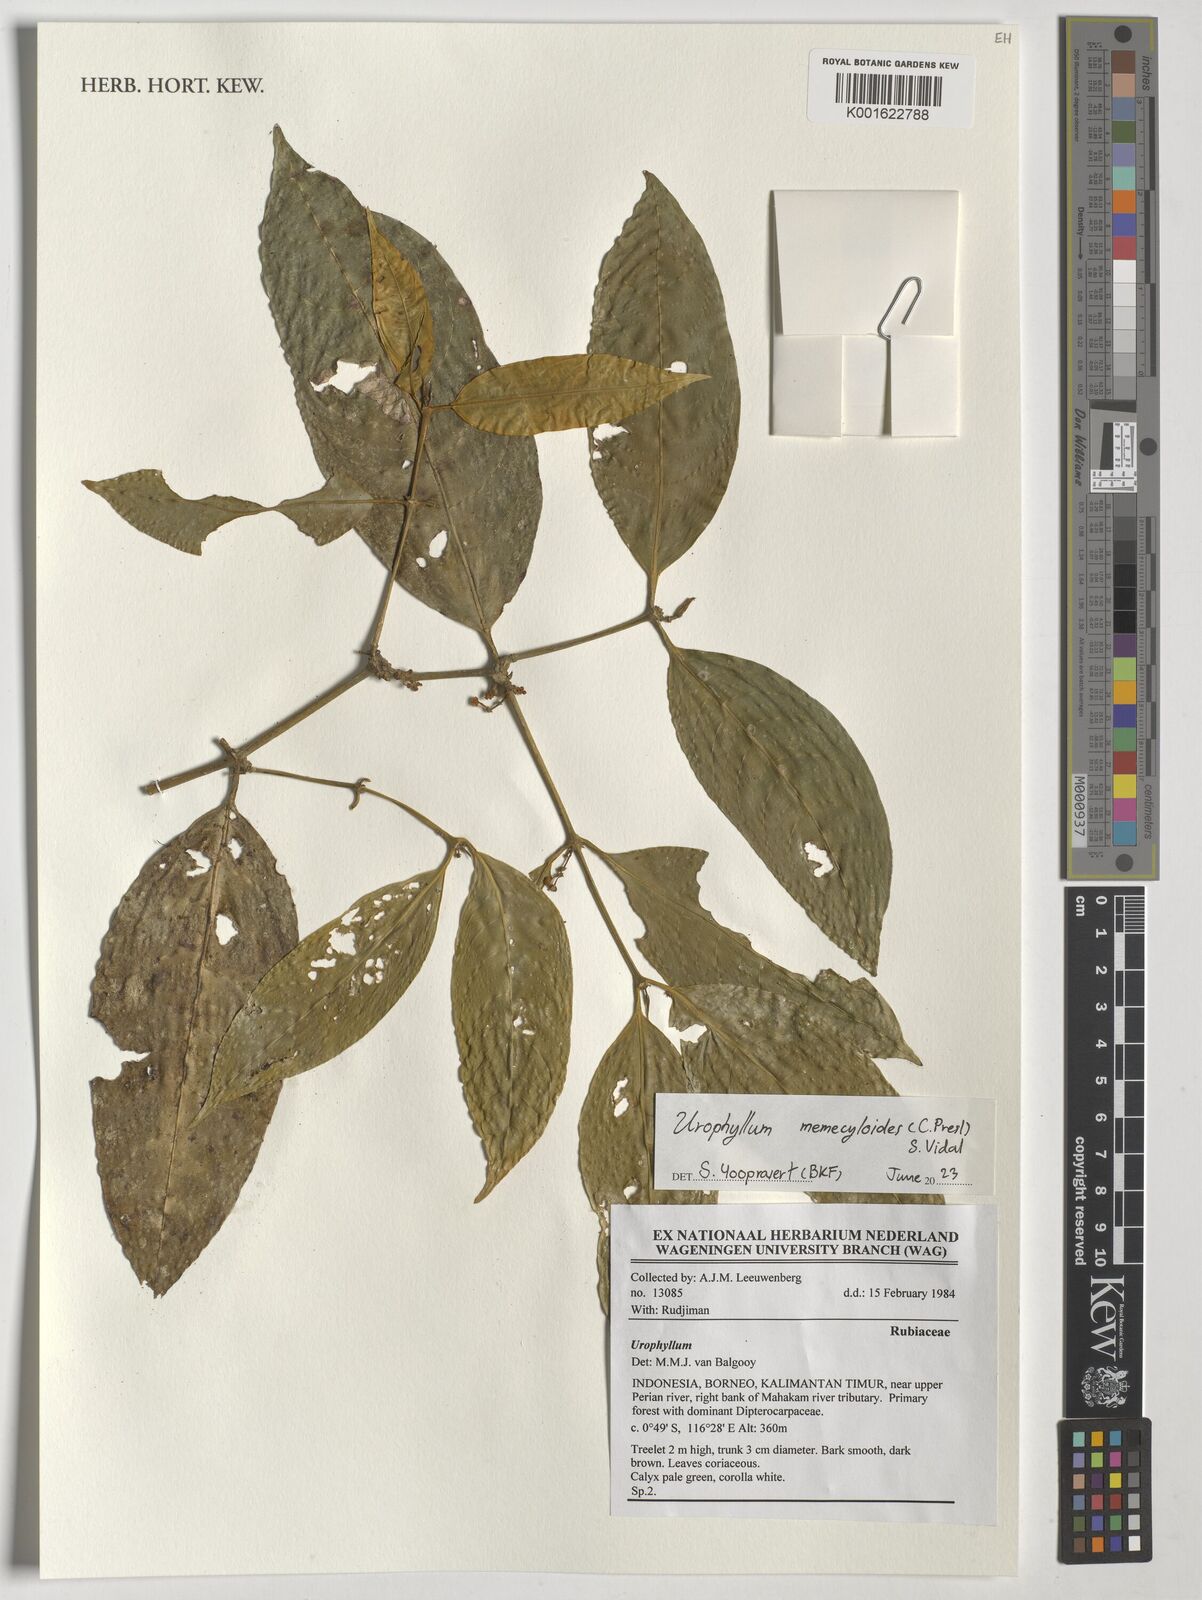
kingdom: Plantae
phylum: Tracheophyta
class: Magnoliopsida
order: Gentianales
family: Rubiaceae
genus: Urophyllum
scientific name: Urophyllum memecyloides
